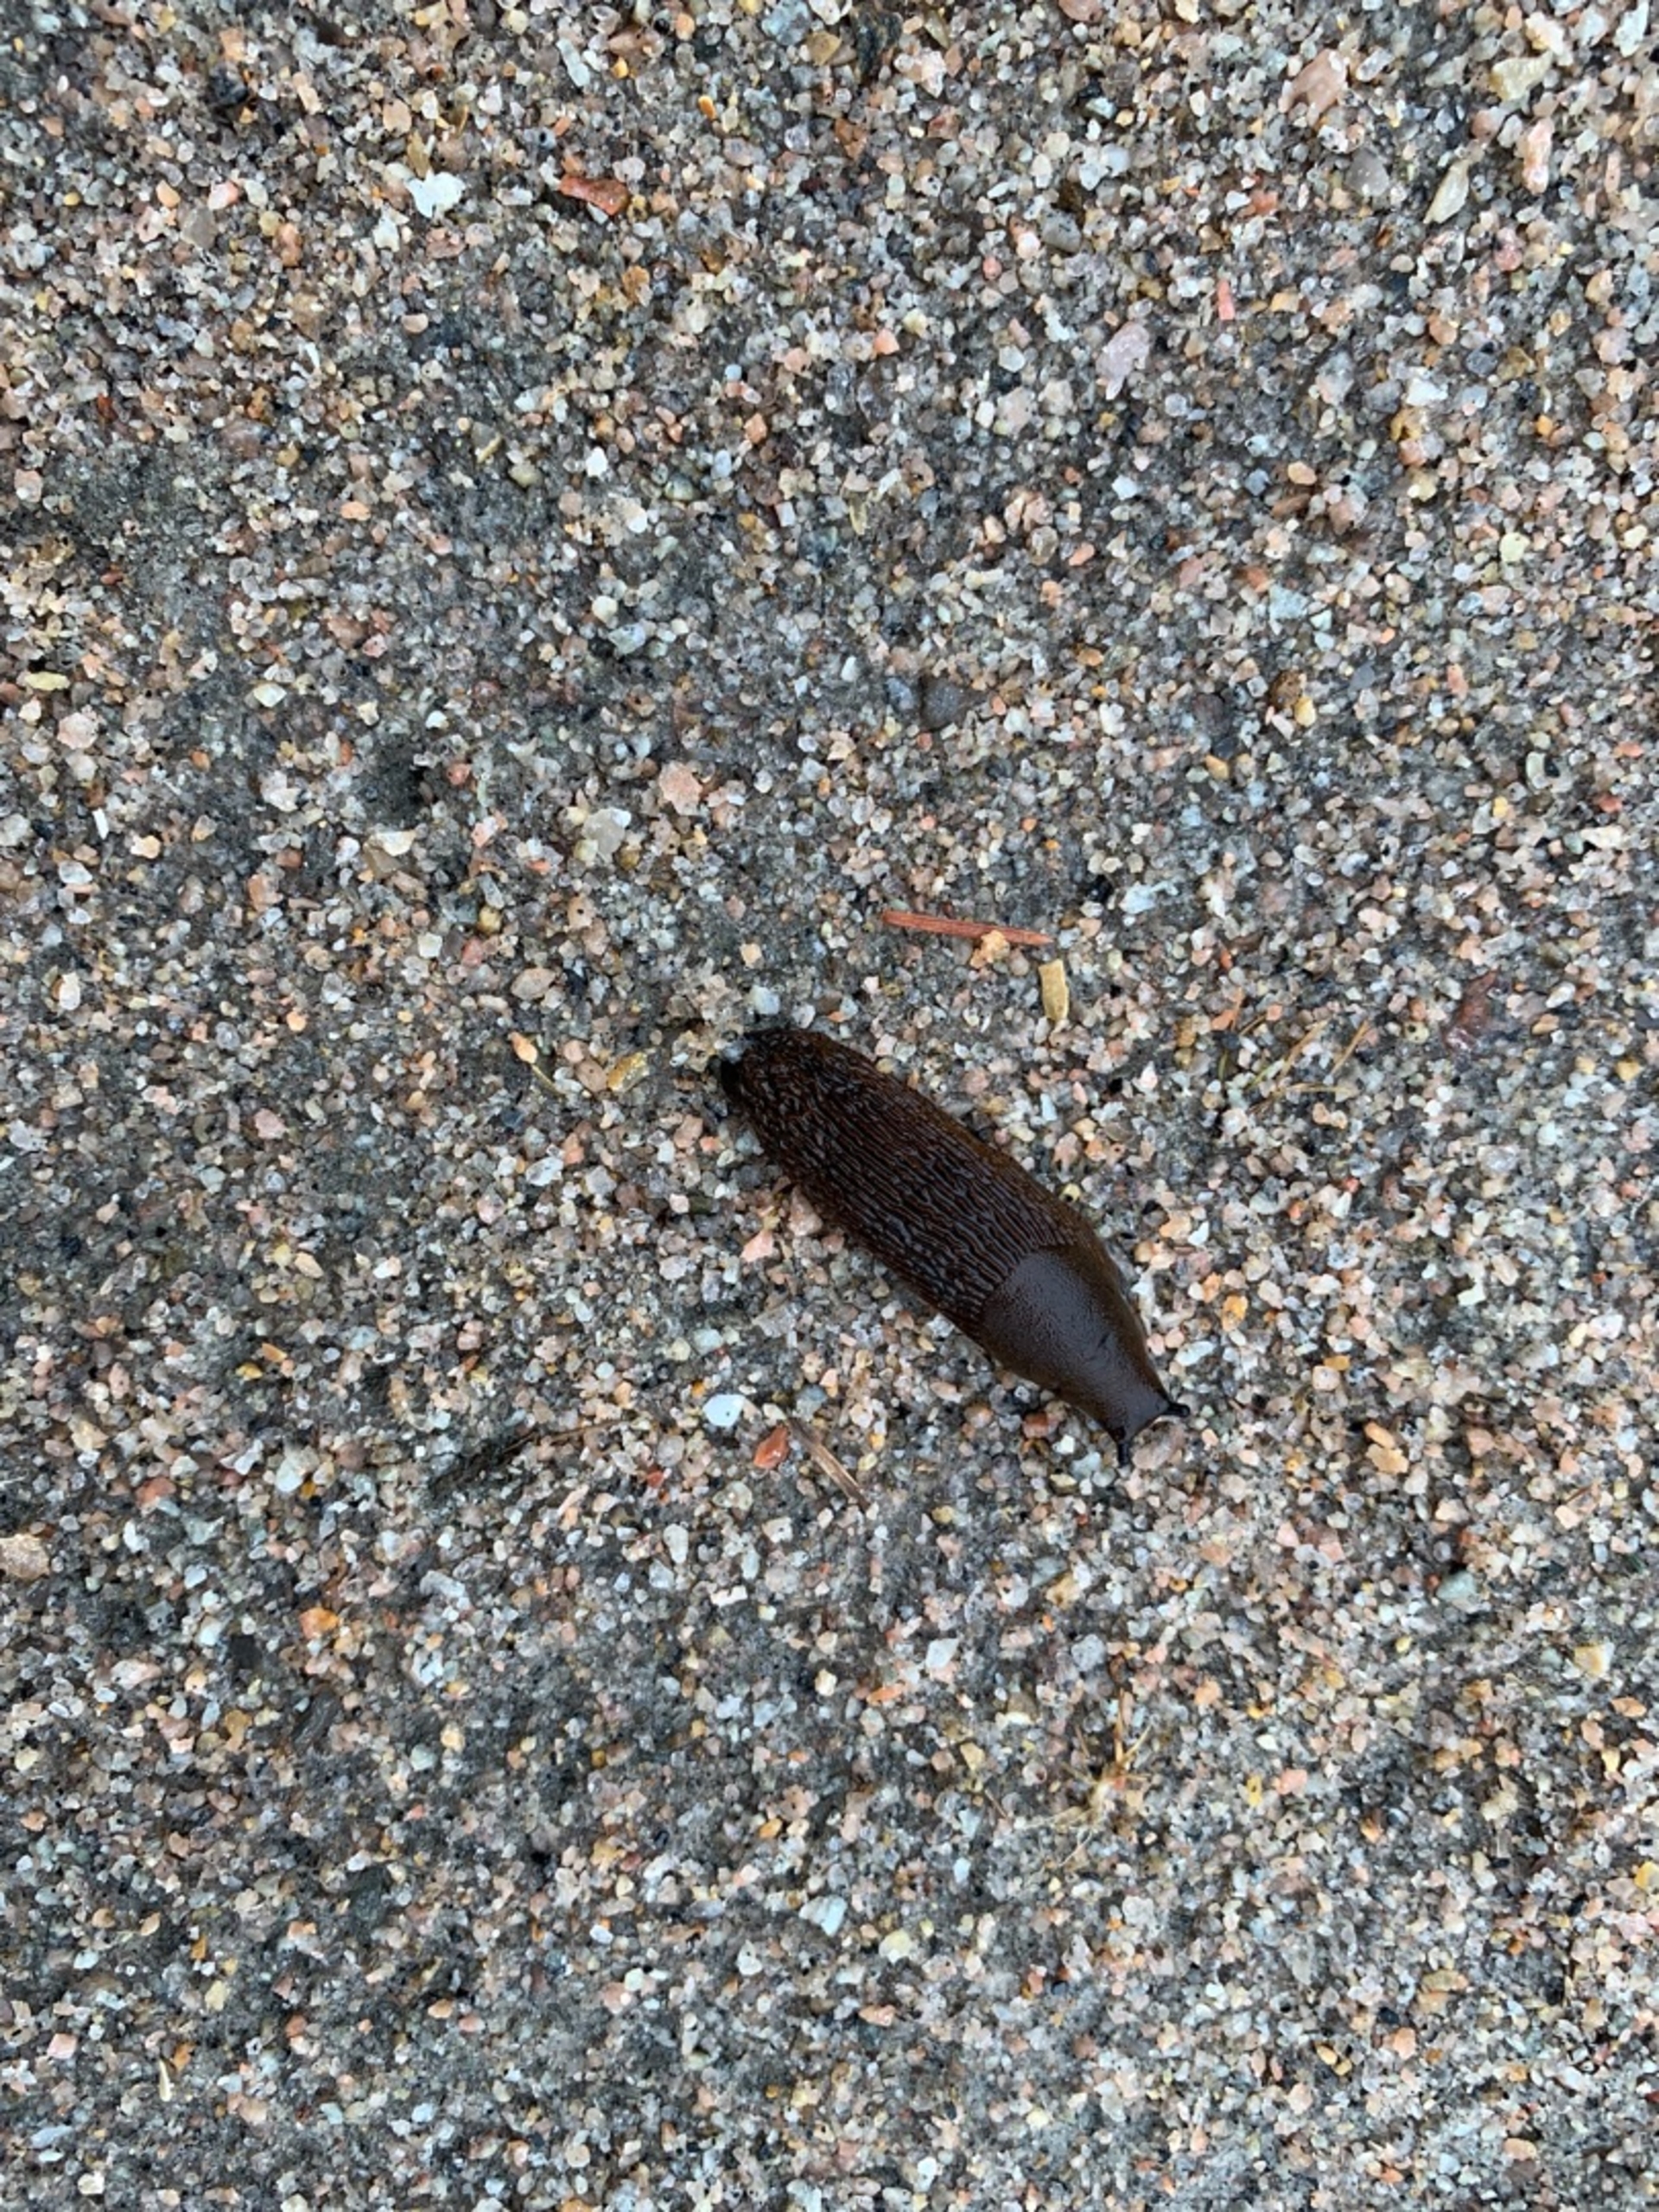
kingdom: Animalia
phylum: Mollusca
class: Gastropoda
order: Stylommatophora
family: Arionidae
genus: Arion
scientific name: Arion vulgaris
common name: Iberisk skovsnegl
